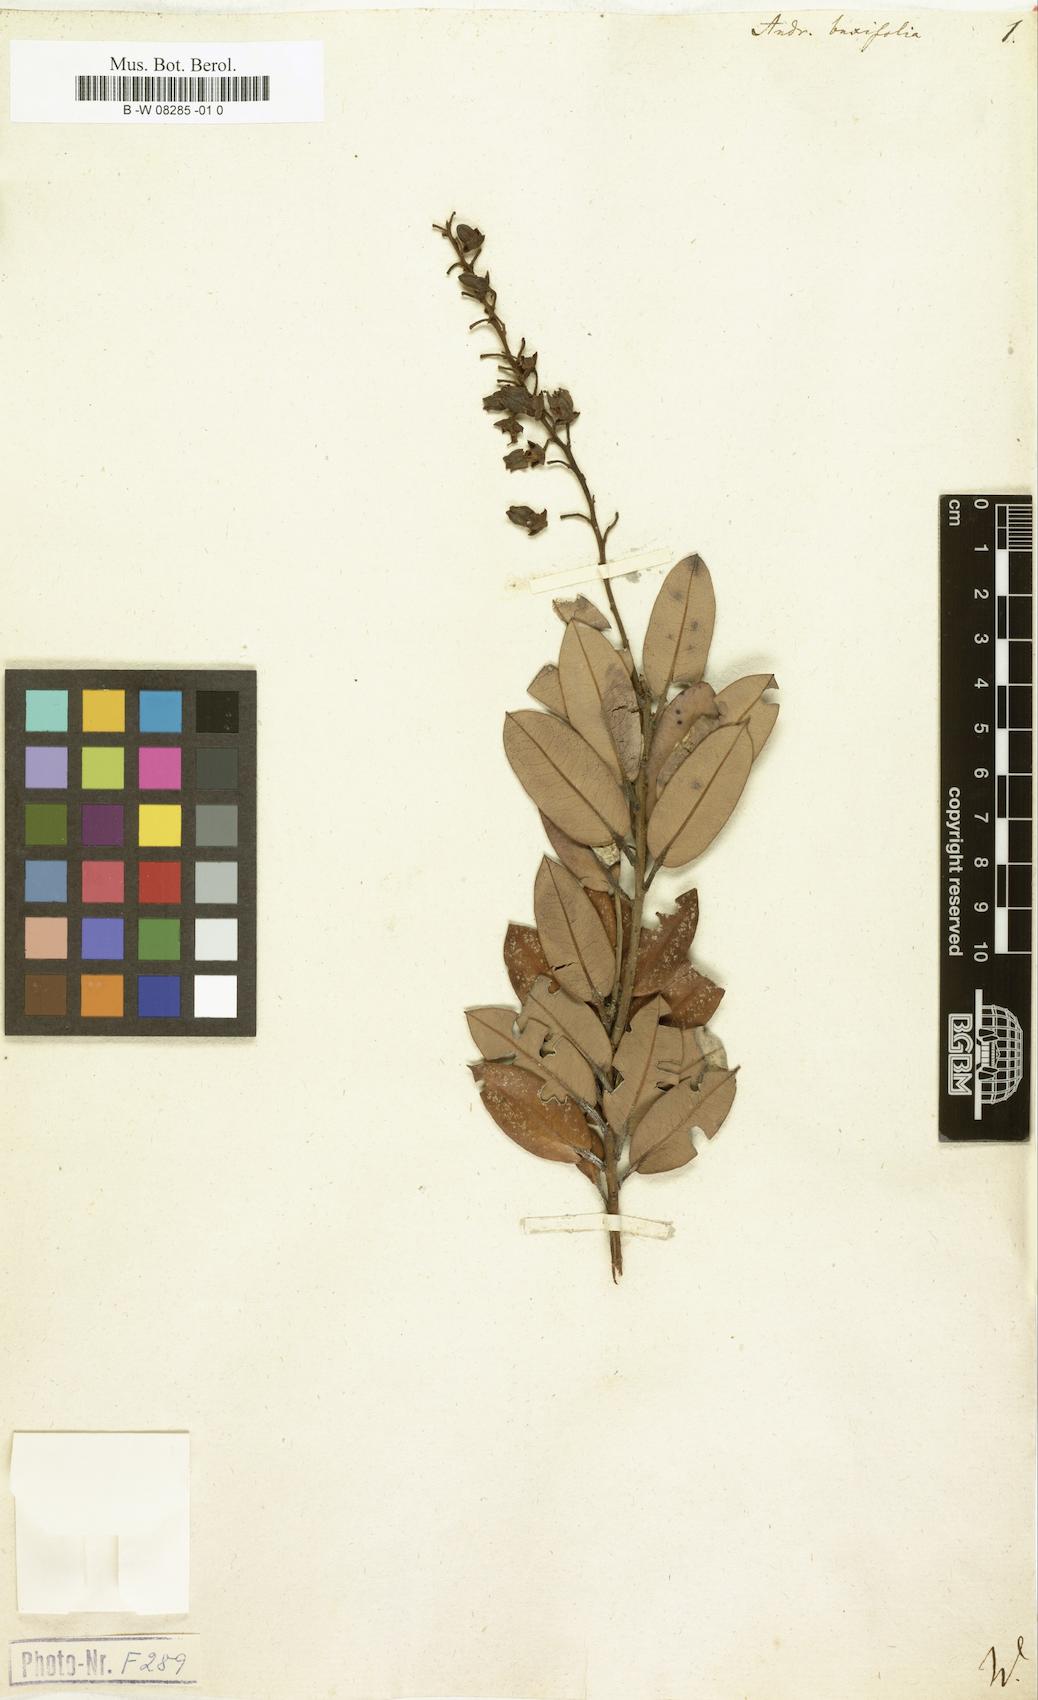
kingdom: Plantae
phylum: Tracheophyta
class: Magnoliopsida
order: Ericales
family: Ericaceae
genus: Agarista
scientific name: Agarista buxifolia
